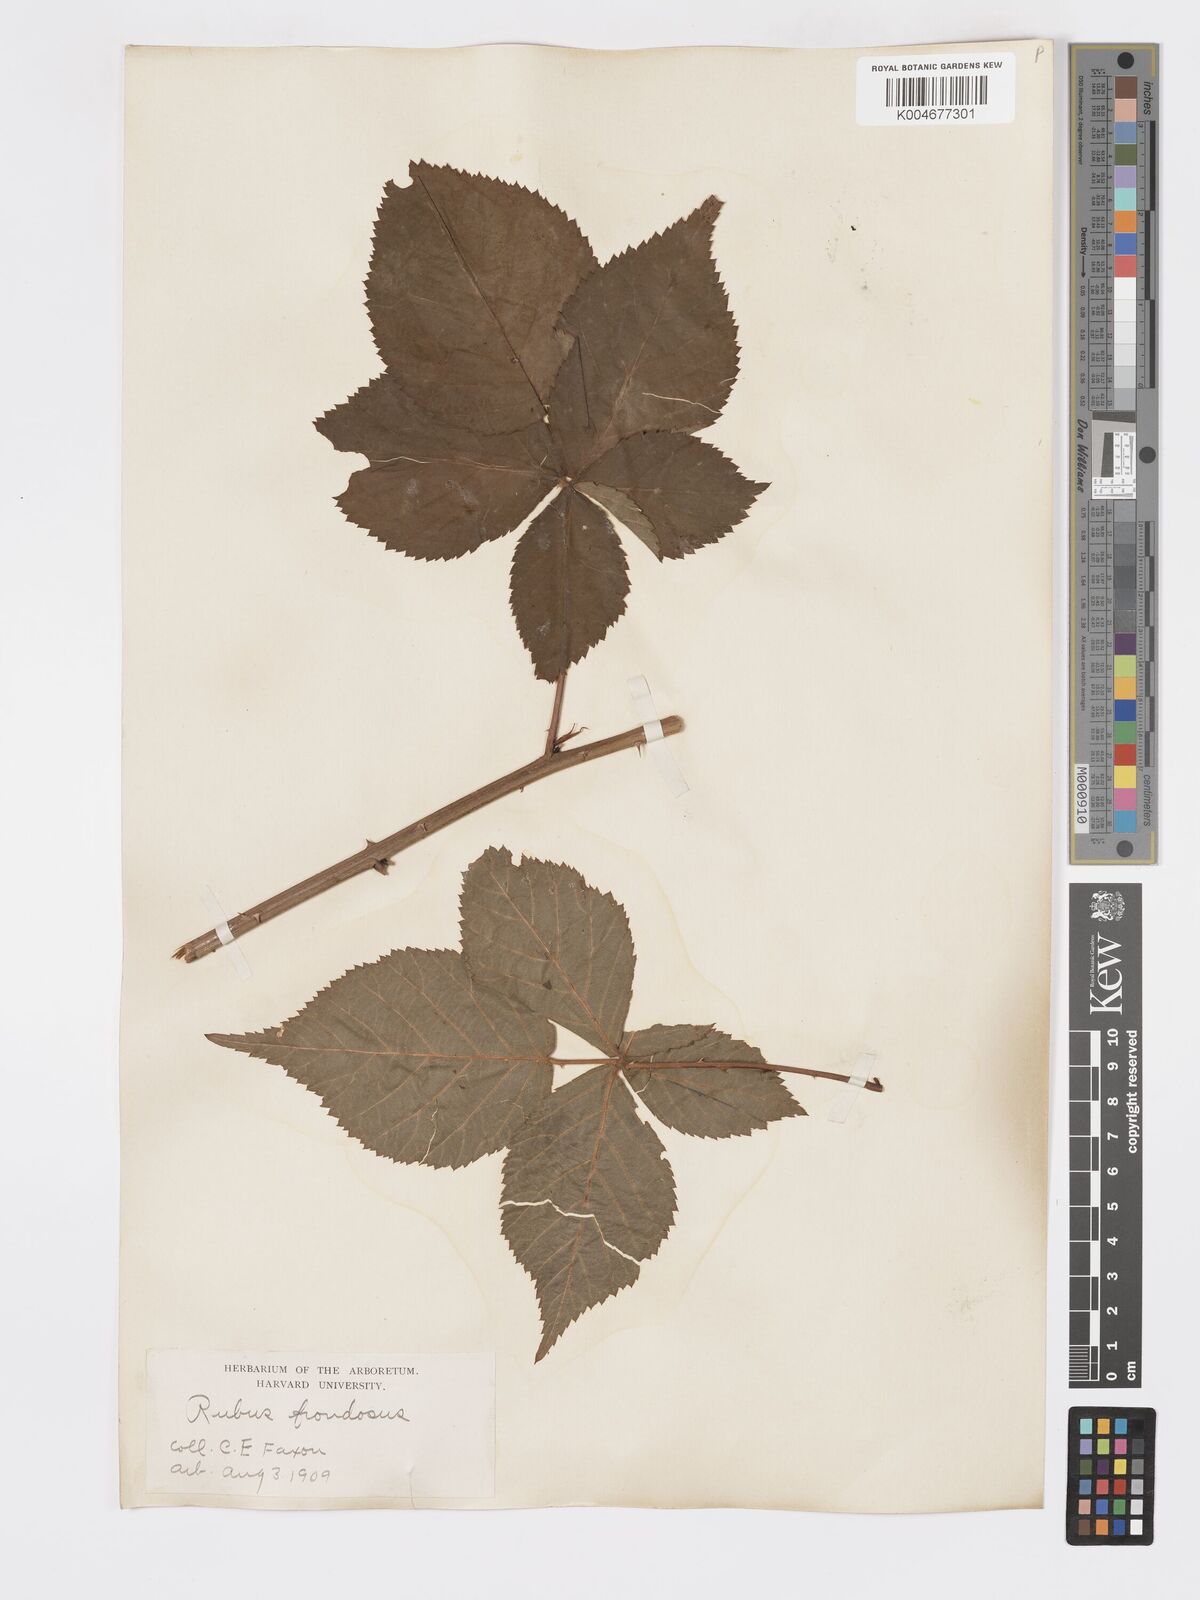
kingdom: Plantae
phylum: Tracheophyta
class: Magnoliopsida
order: Rosales
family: Rosaceae
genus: Rubus
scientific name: Rubus frondosus
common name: Yankee blackberry
